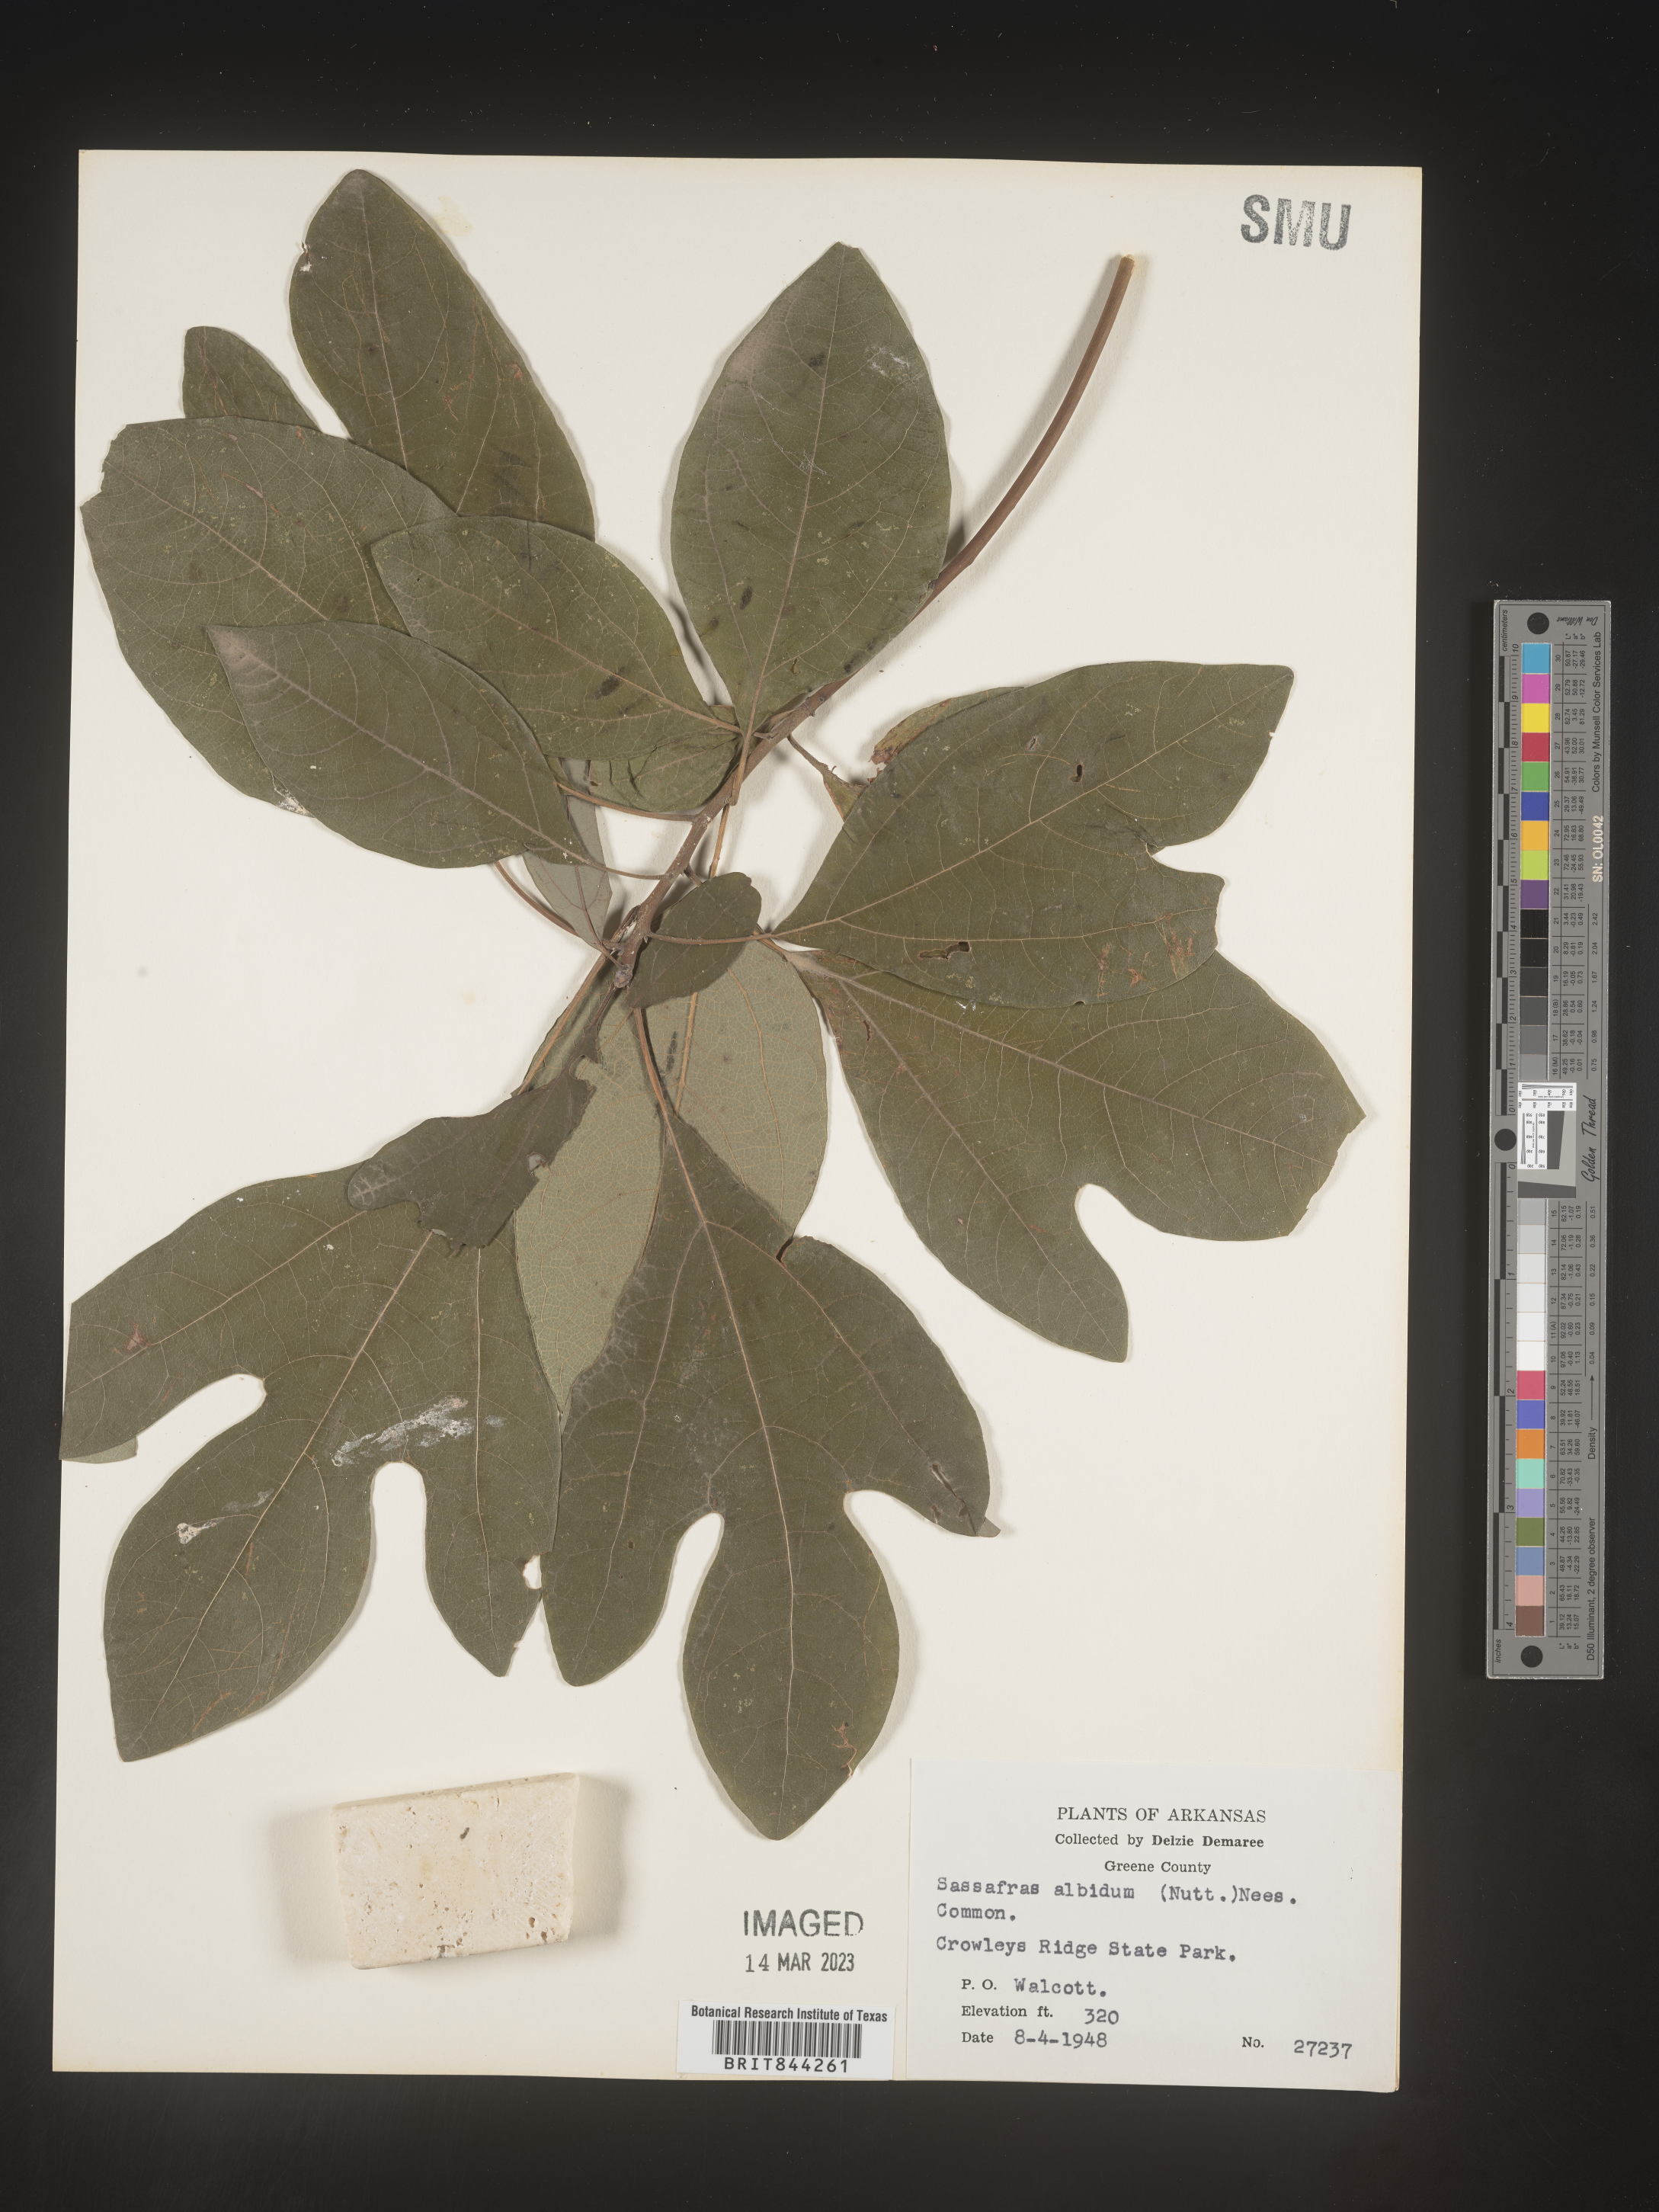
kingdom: Plantae
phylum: Tracheophyta
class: Magnoliopsida
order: Laurales
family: Lauraceae
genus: Sassafras
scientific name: Sassafras albidum
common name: Sassafras
